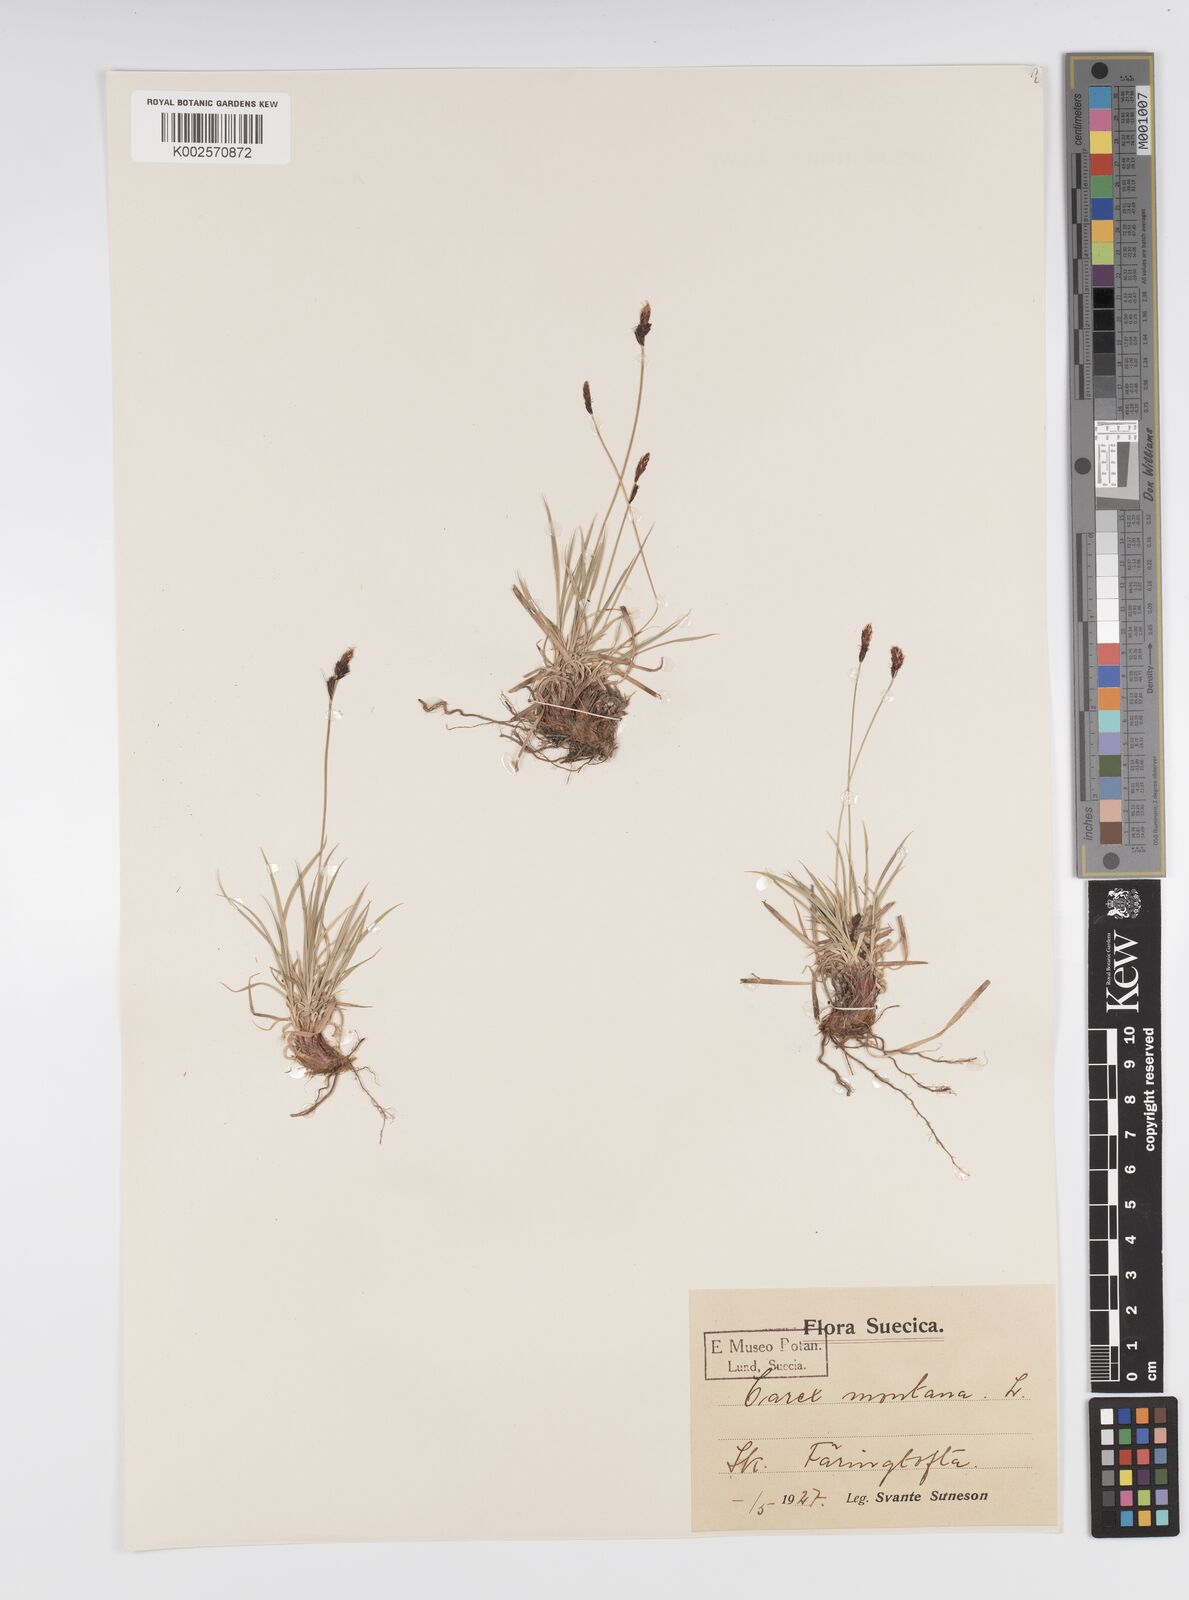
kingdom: Plantae
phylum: Tracheophyta
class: Liliopsida
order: Poales
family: Cyperaceae
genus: Carex
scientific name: Carex montana
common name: Soft-leaved sedge
